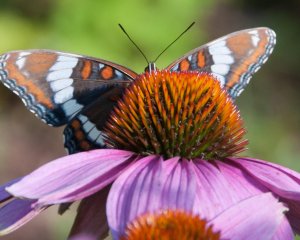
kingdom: Animalia
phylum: Arthropoda
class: Insecta
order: Lepidoptera
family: Nymphalidae
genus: Limenitis
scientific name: Limenitis arthemis
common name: Red-spotted Admiral
